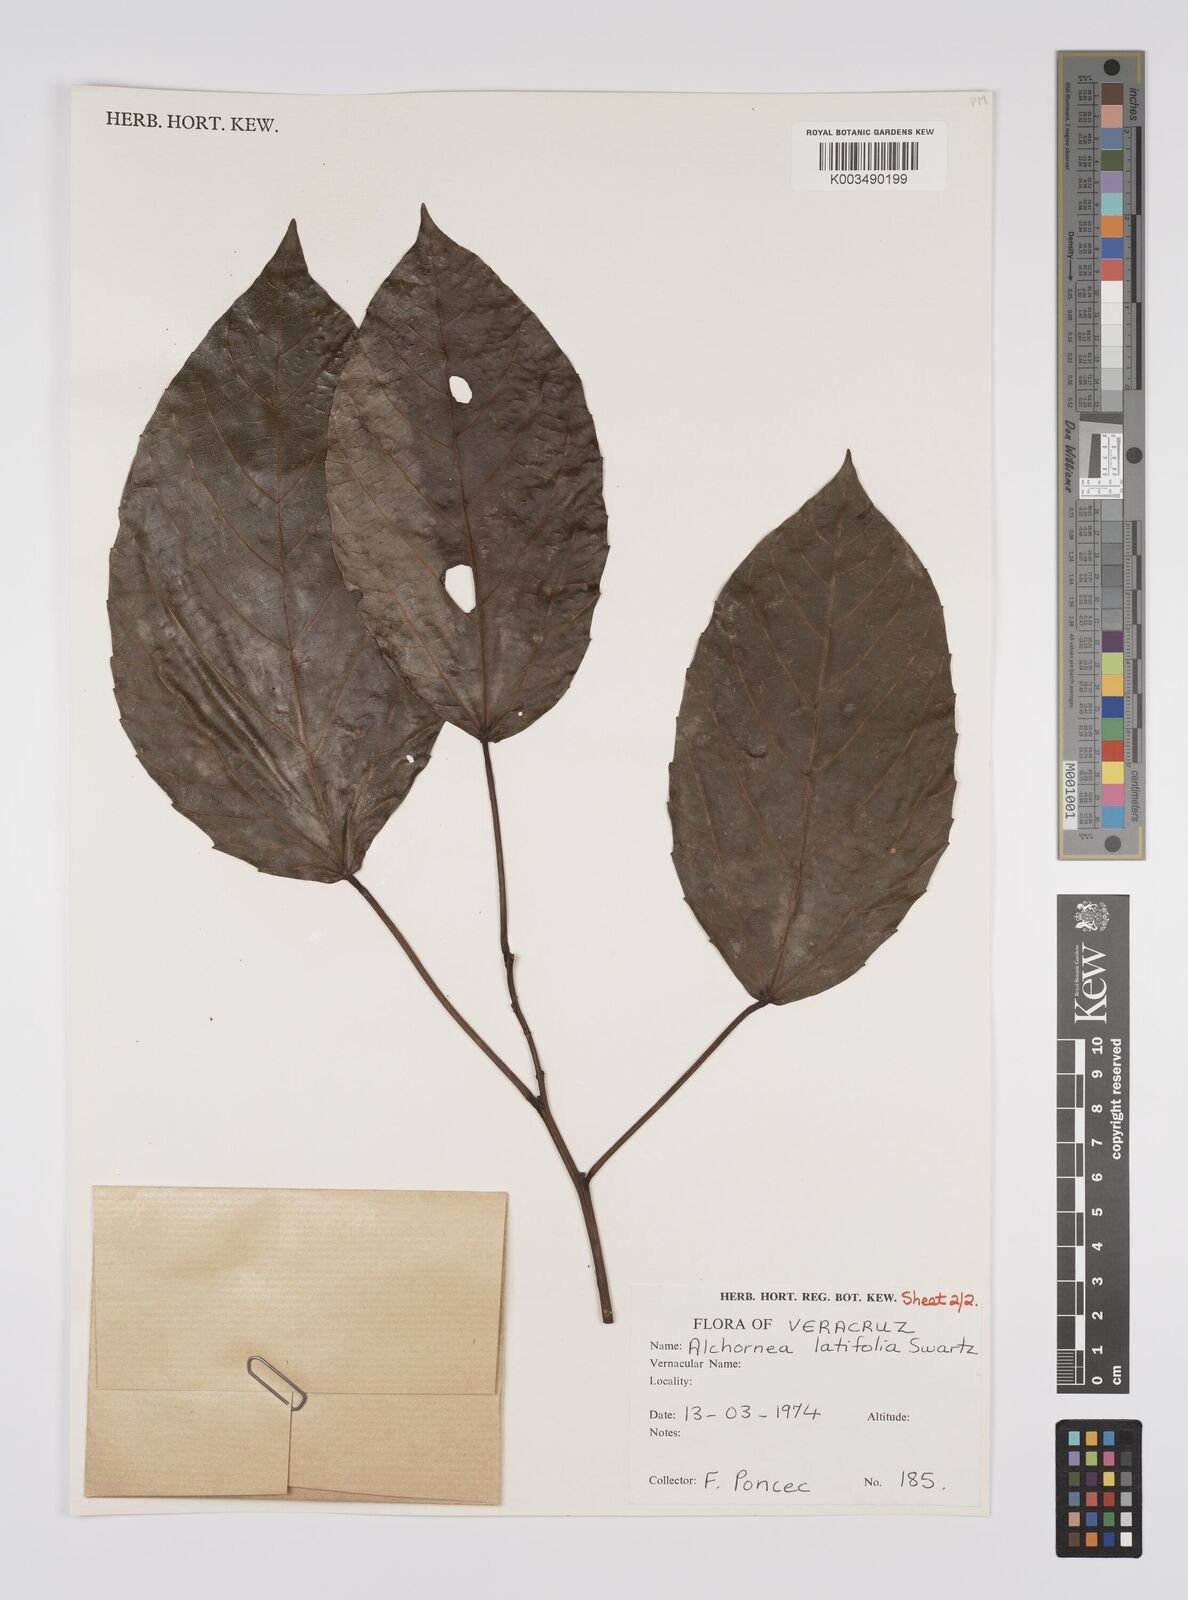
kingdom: Plantae
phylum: Tracheophyta
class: Magnoliopsida
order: Malpighiales
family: Euphorbiaceae
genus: Alchornea
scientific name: Alchornea latifolia
